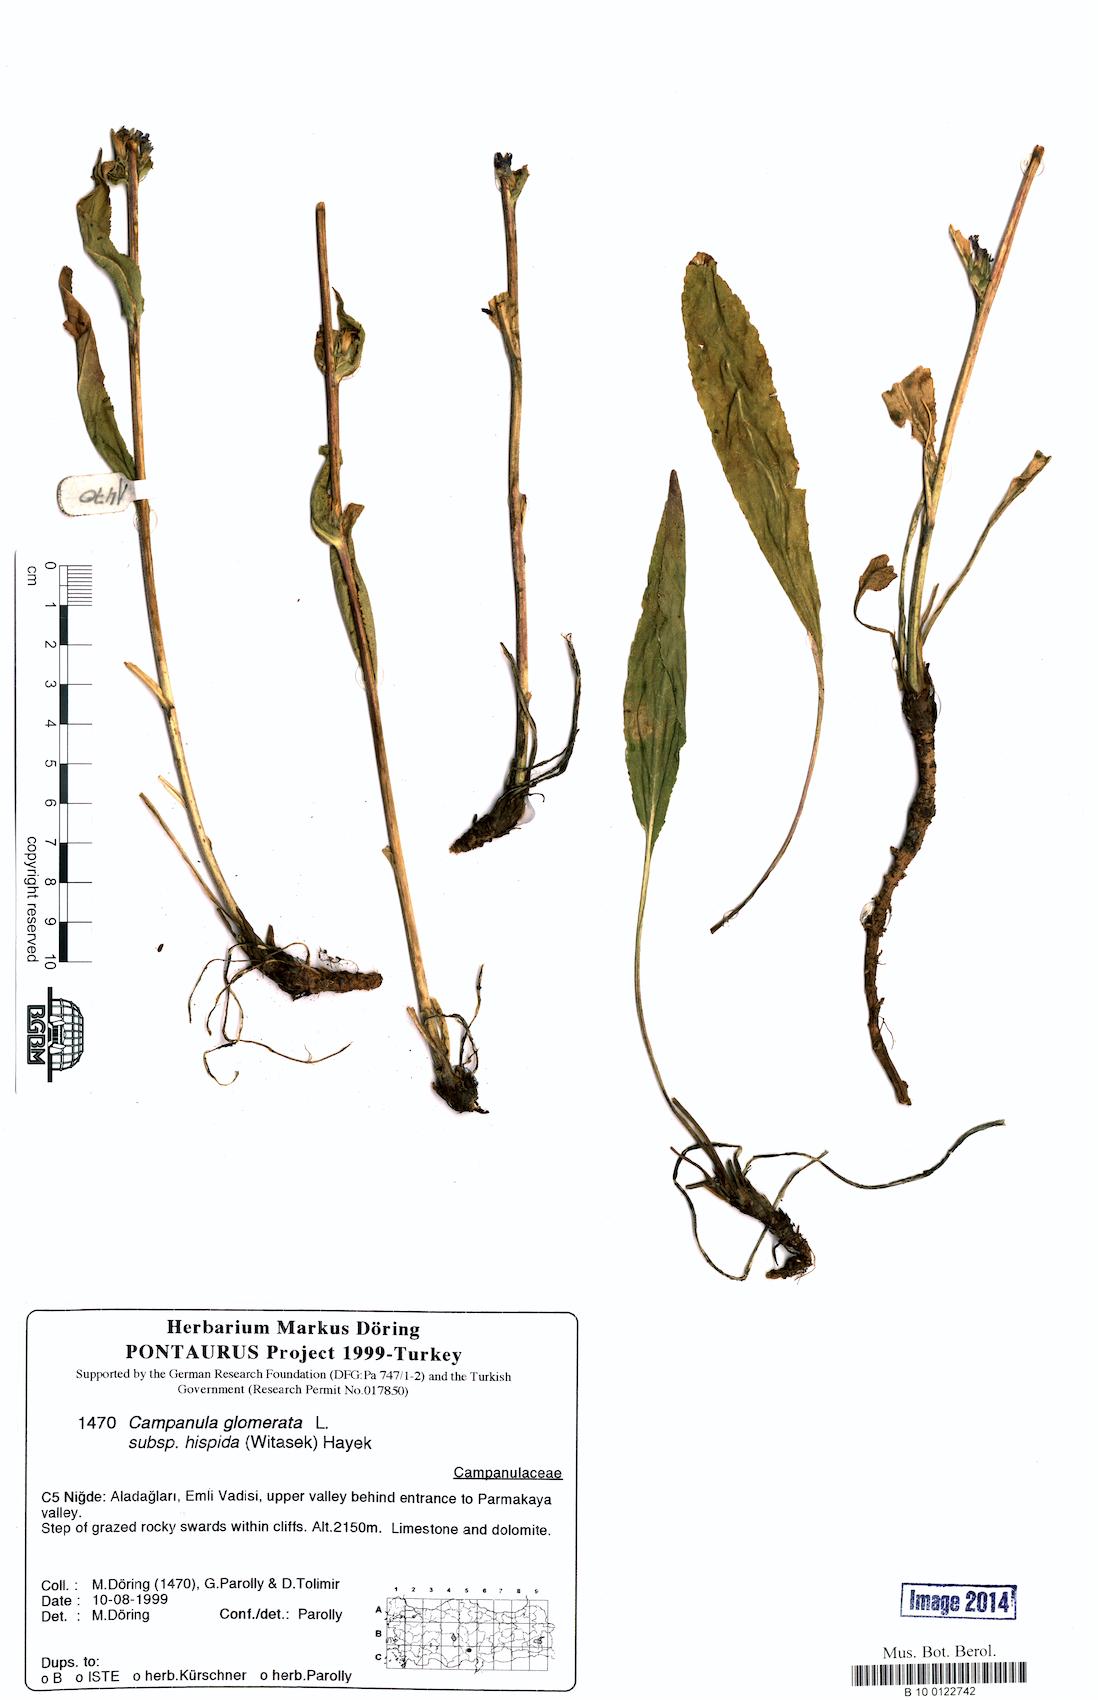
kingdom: Plantae
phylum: Tracheophyta
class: Magnoliopsida
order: Asterales
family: Campanulaceae
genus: Campanula
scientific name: Campanula glomerata
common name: Clustered bellflower
